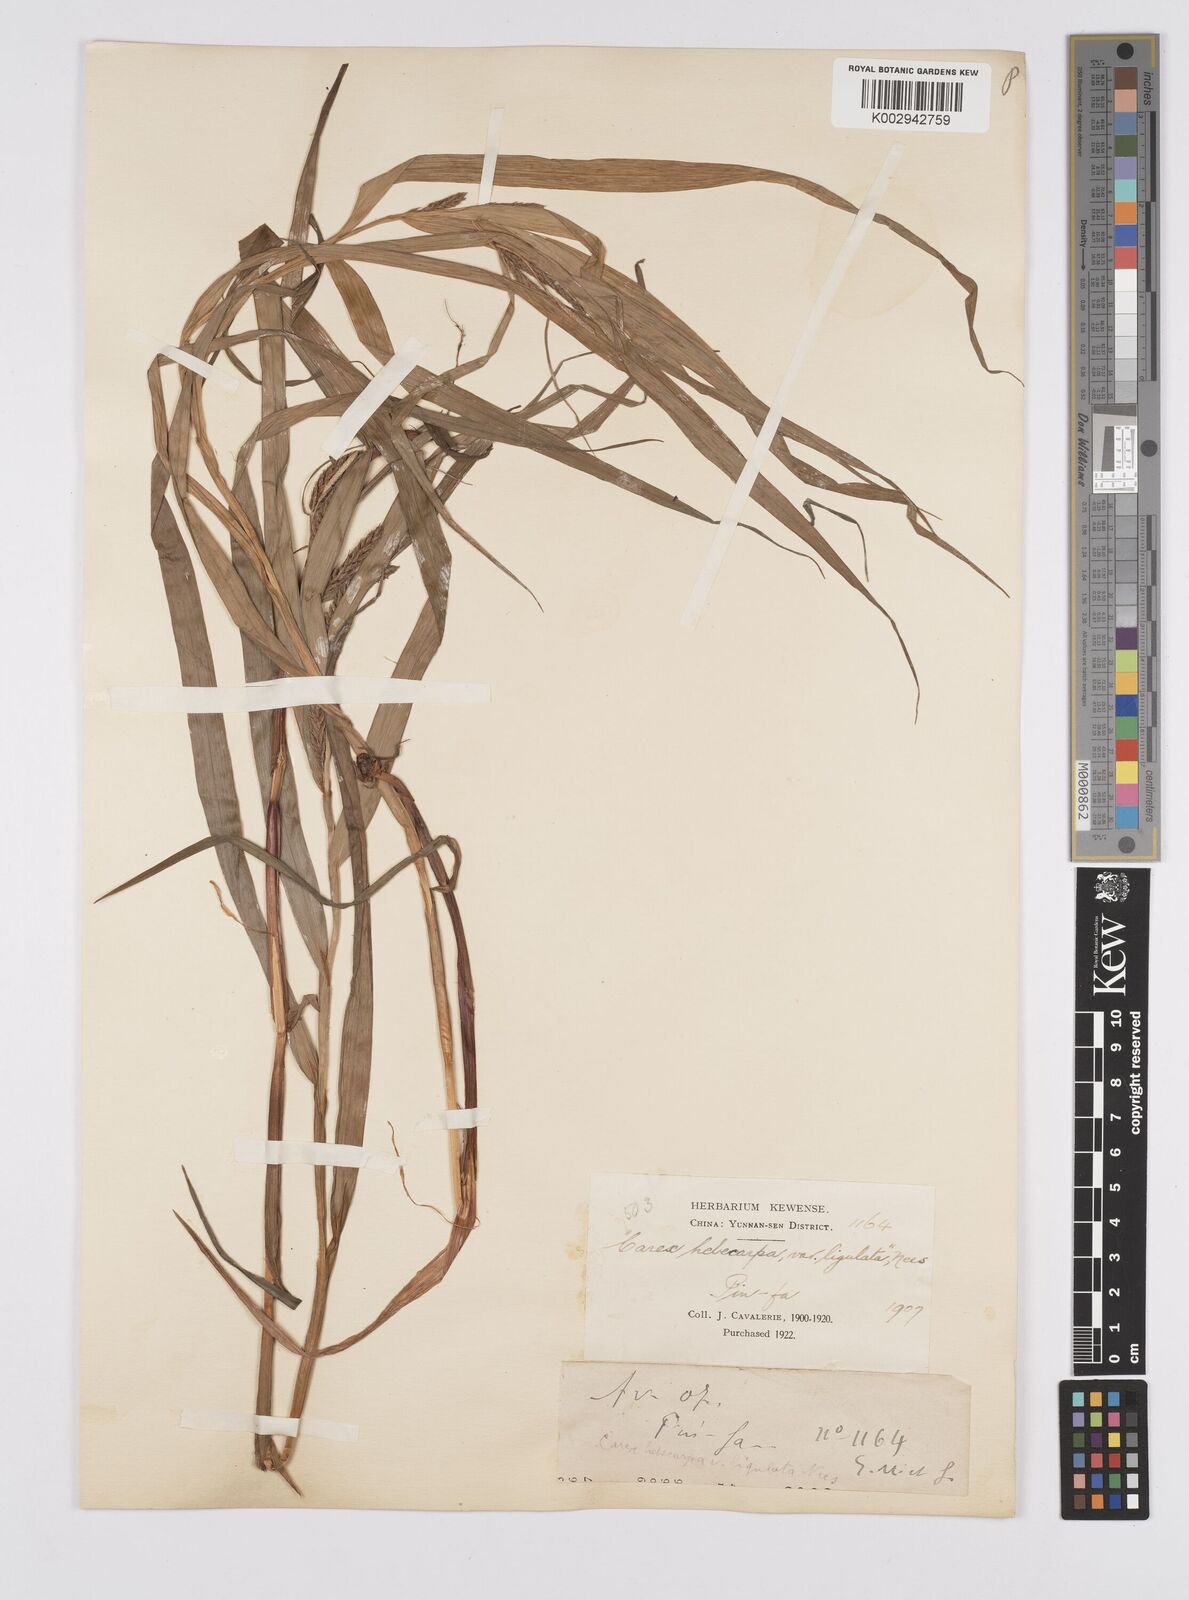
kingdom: Plantae
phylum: Tracheophyta
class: Liliopsida
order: Poales
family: Cyperaceae
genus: Carex
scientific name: Carex maubertiana
